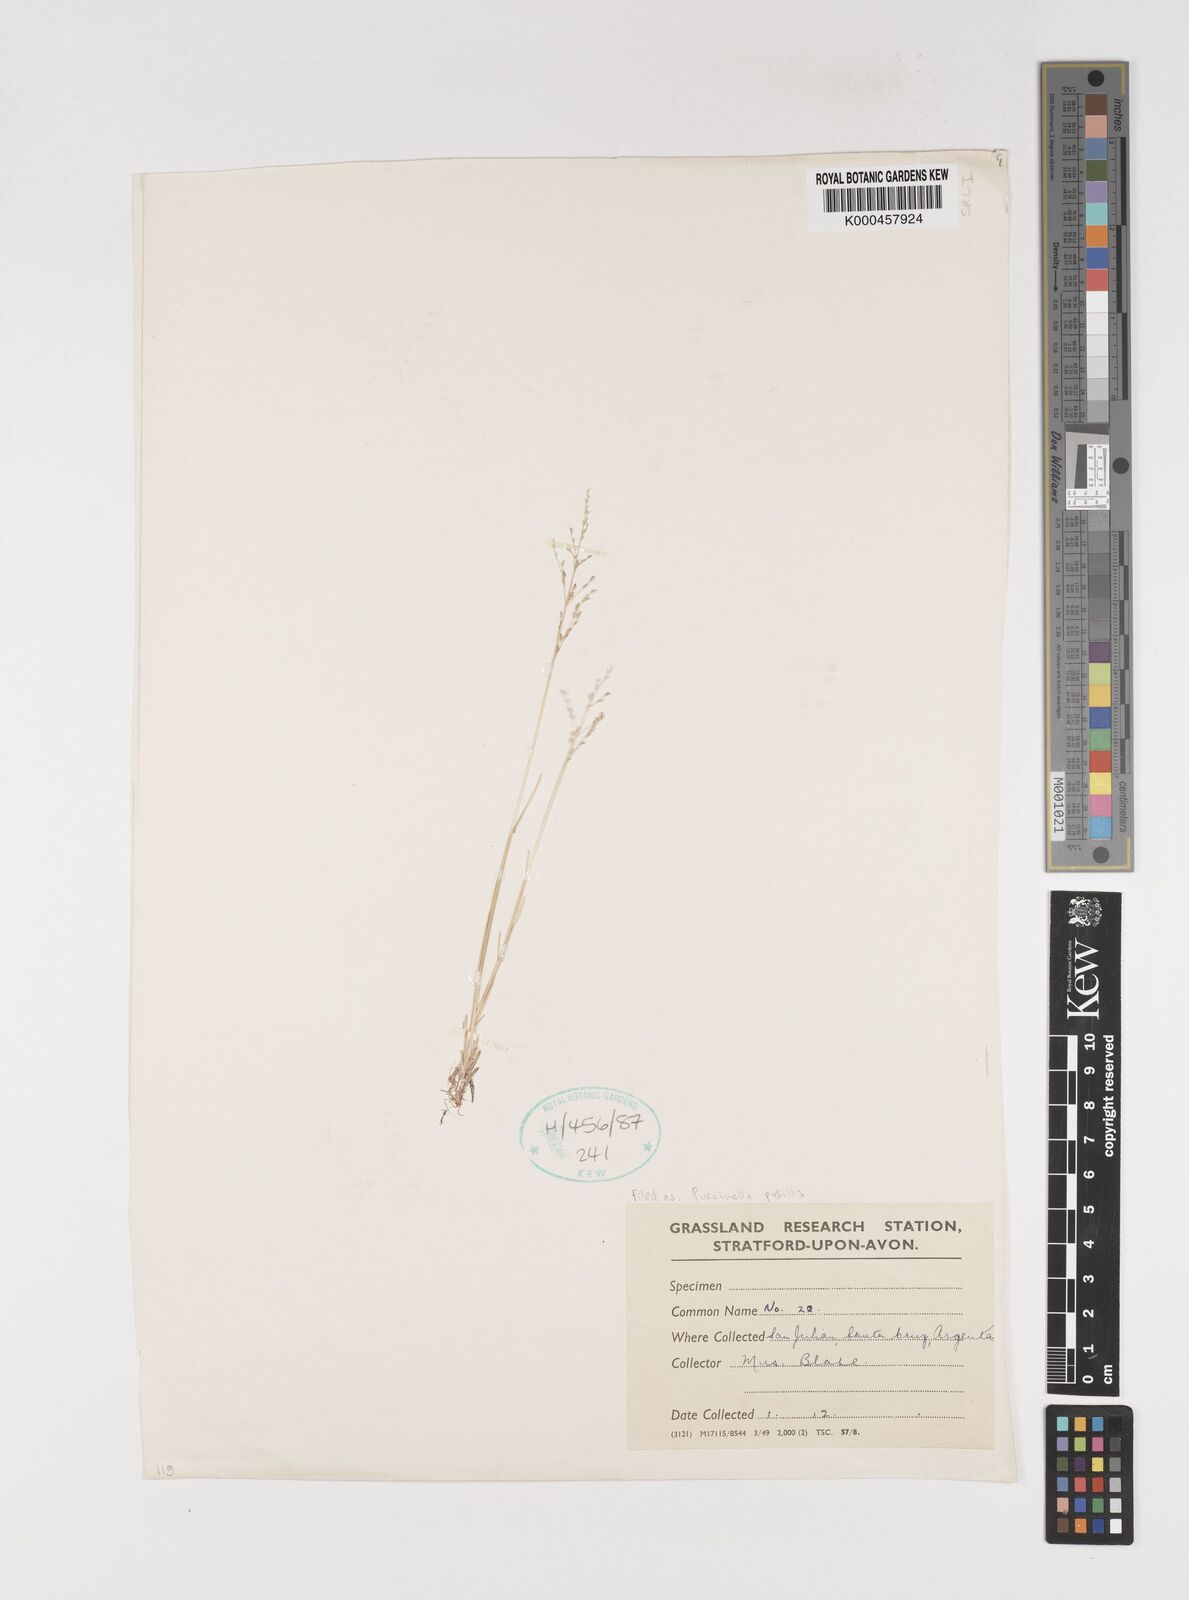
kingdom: Plantae
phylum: Tracheophyta
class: Liliopsida
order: Poales
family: Poaceae
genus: Puccinellia
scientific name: Puccinellia pusilla
